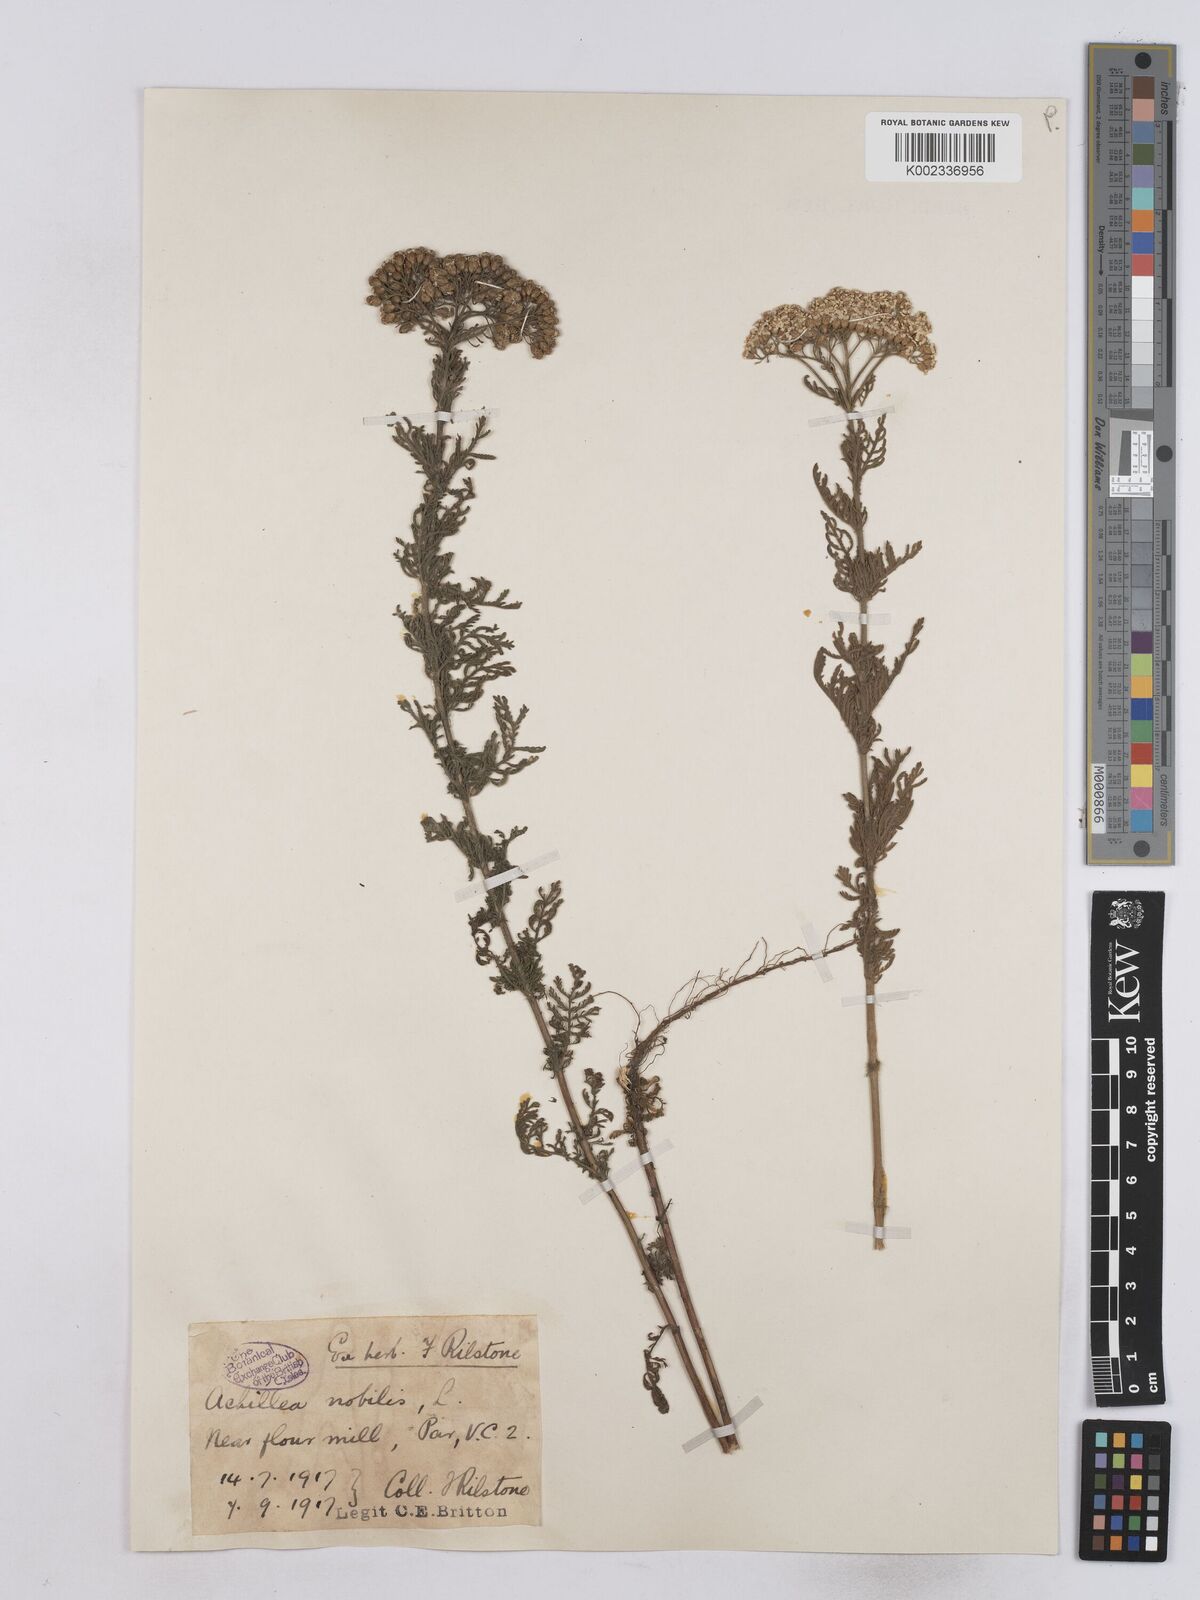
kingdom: Plantae
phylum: Tracheophyta
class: Magnoliopsida
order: Asterales
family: Asteraceae
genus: Achillea
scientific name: Achillea nobilis
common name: Noble yarrow
